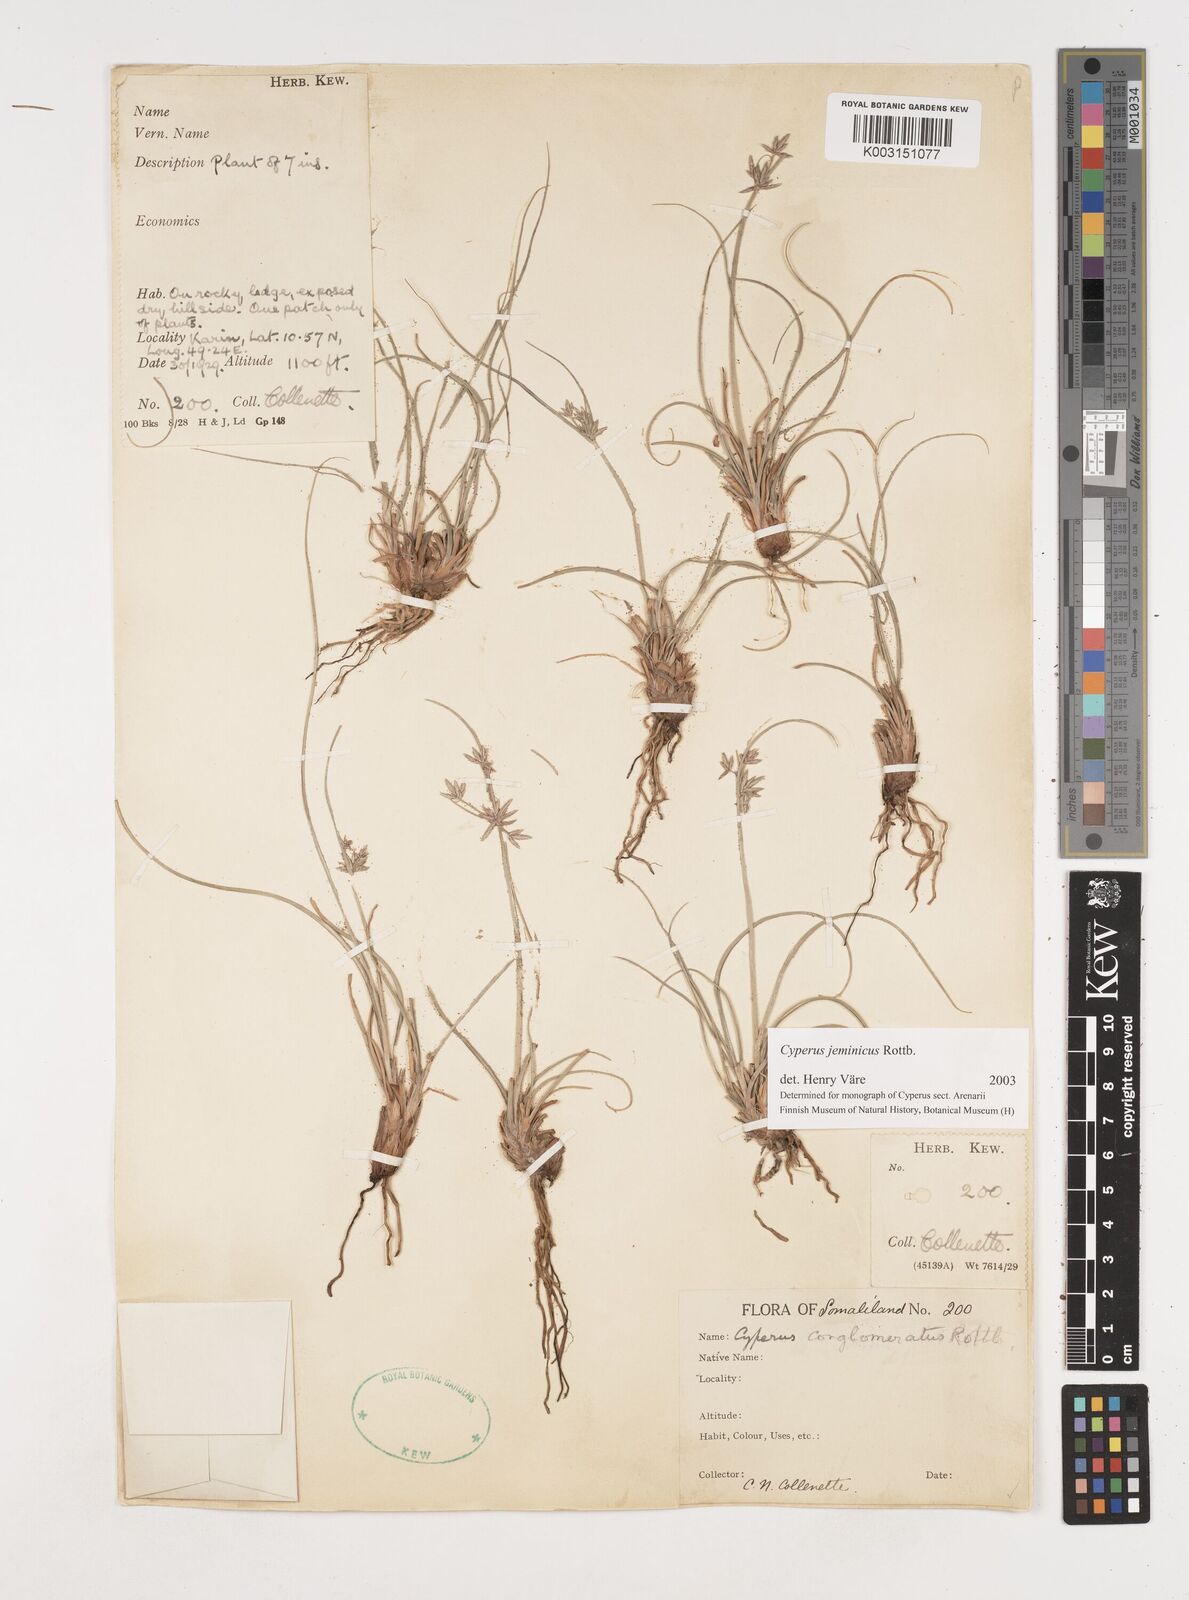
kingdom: Plantae
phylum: Tracheophyta
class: Liliopsida
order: Poales
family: Cyperaceae
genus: Cyperus
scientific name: Cyperus jeminicus
